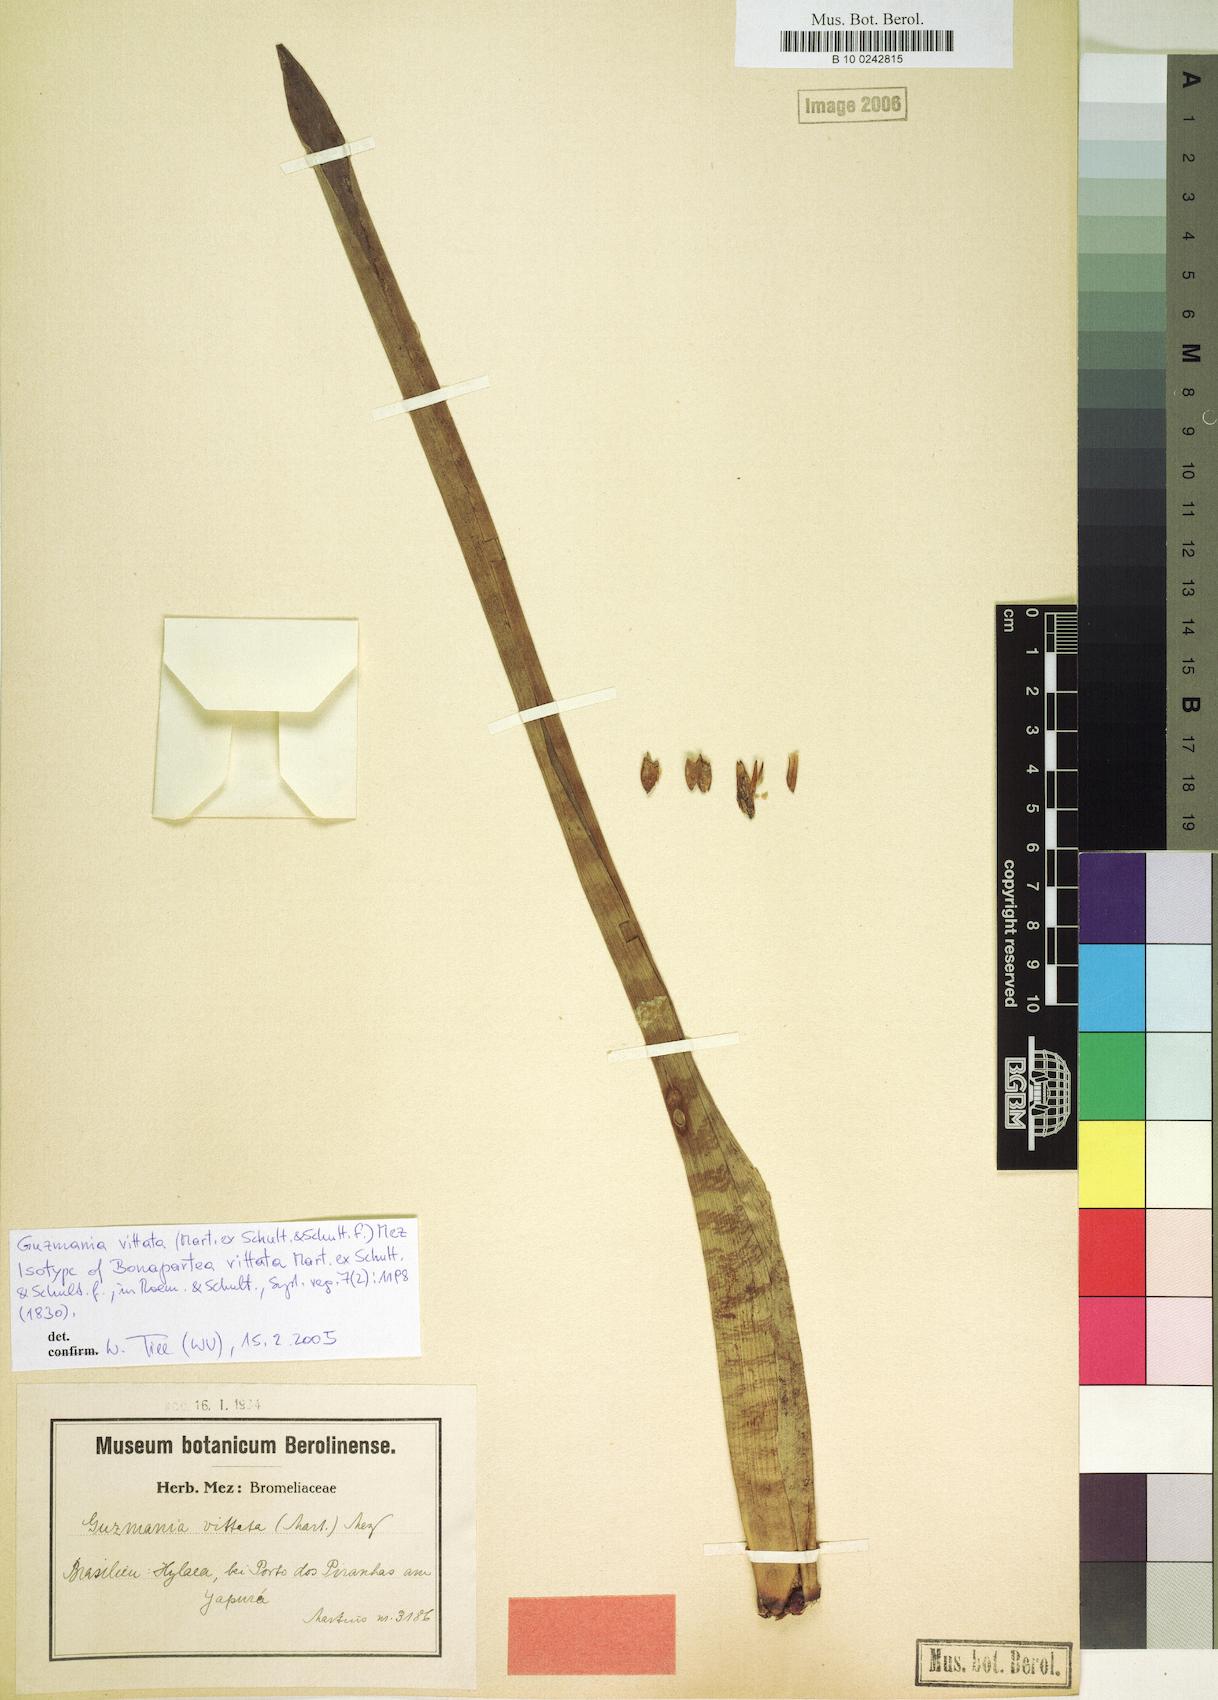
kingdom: Plantae
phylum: Tracheophyta
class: Liliopsida
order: Poales
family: Bromeliaceae
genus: Guzmania
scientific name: Guzmania vittata
